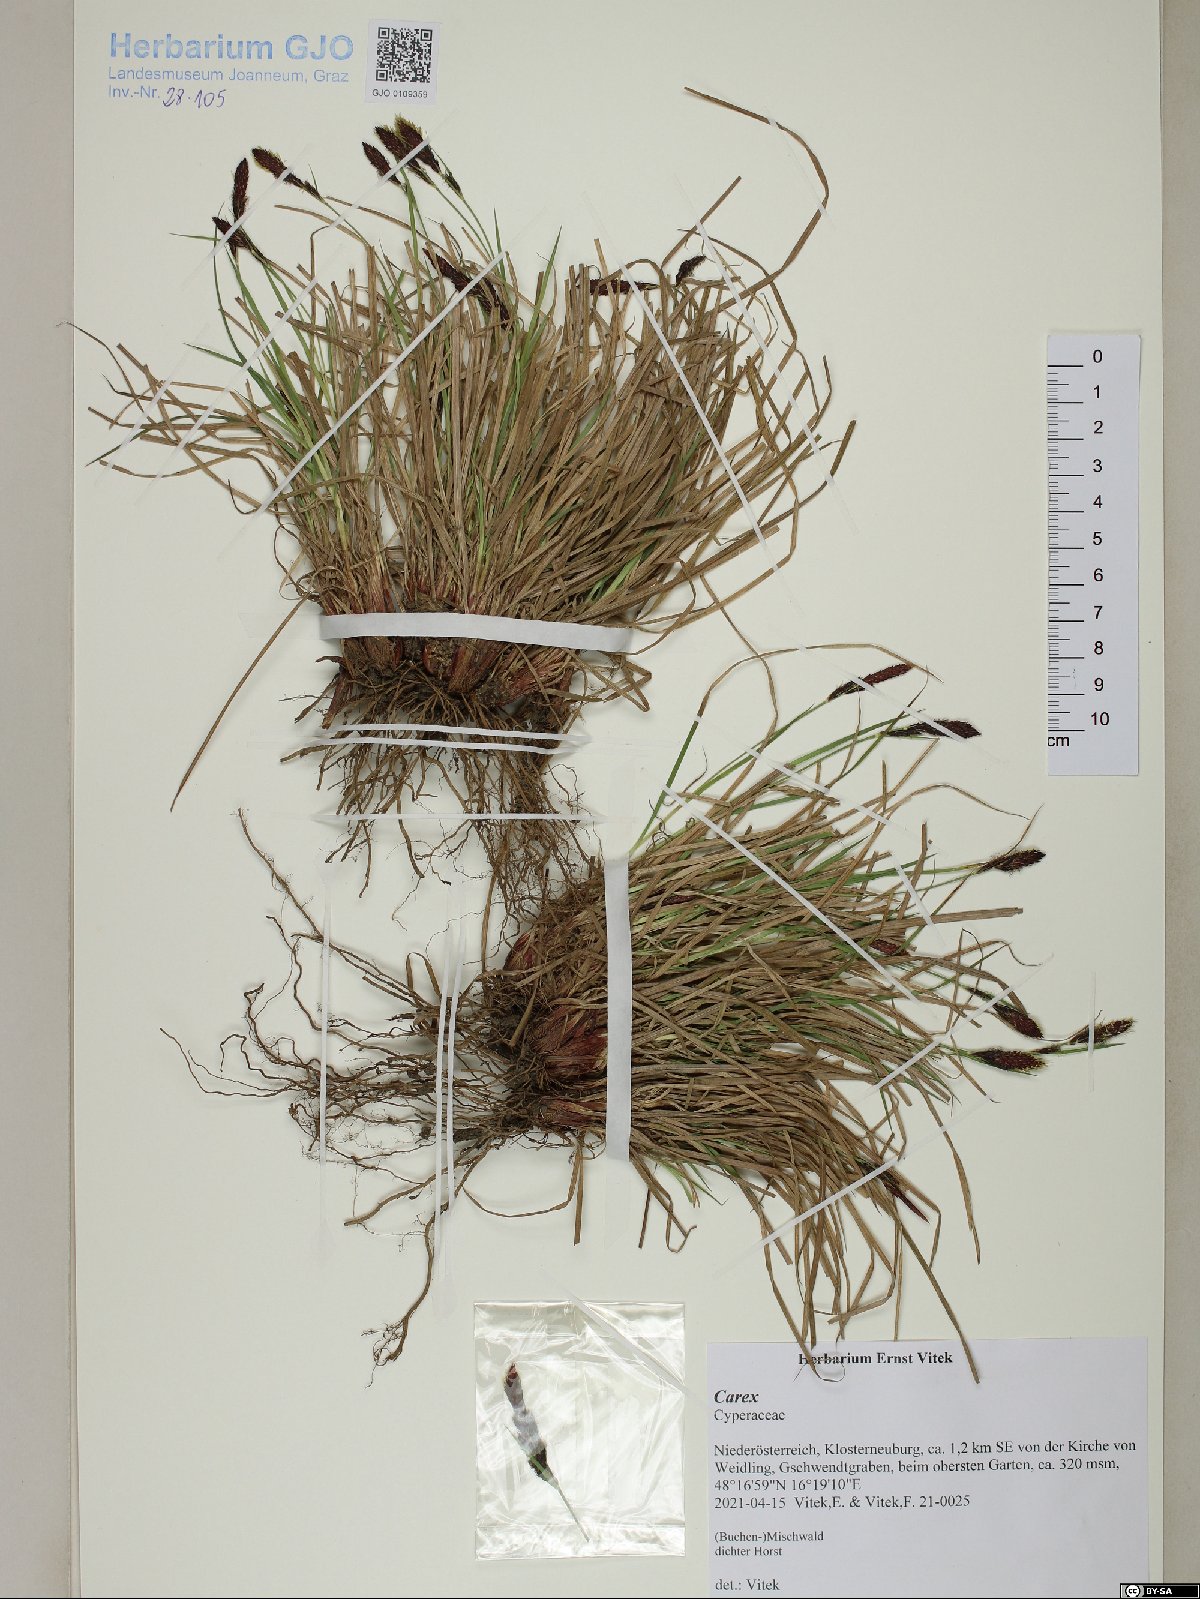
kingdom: Plantae
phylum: Tracheophyta
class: Liliopsida
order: Poales
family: Cyperaceae
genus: Carex
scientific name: Carex
